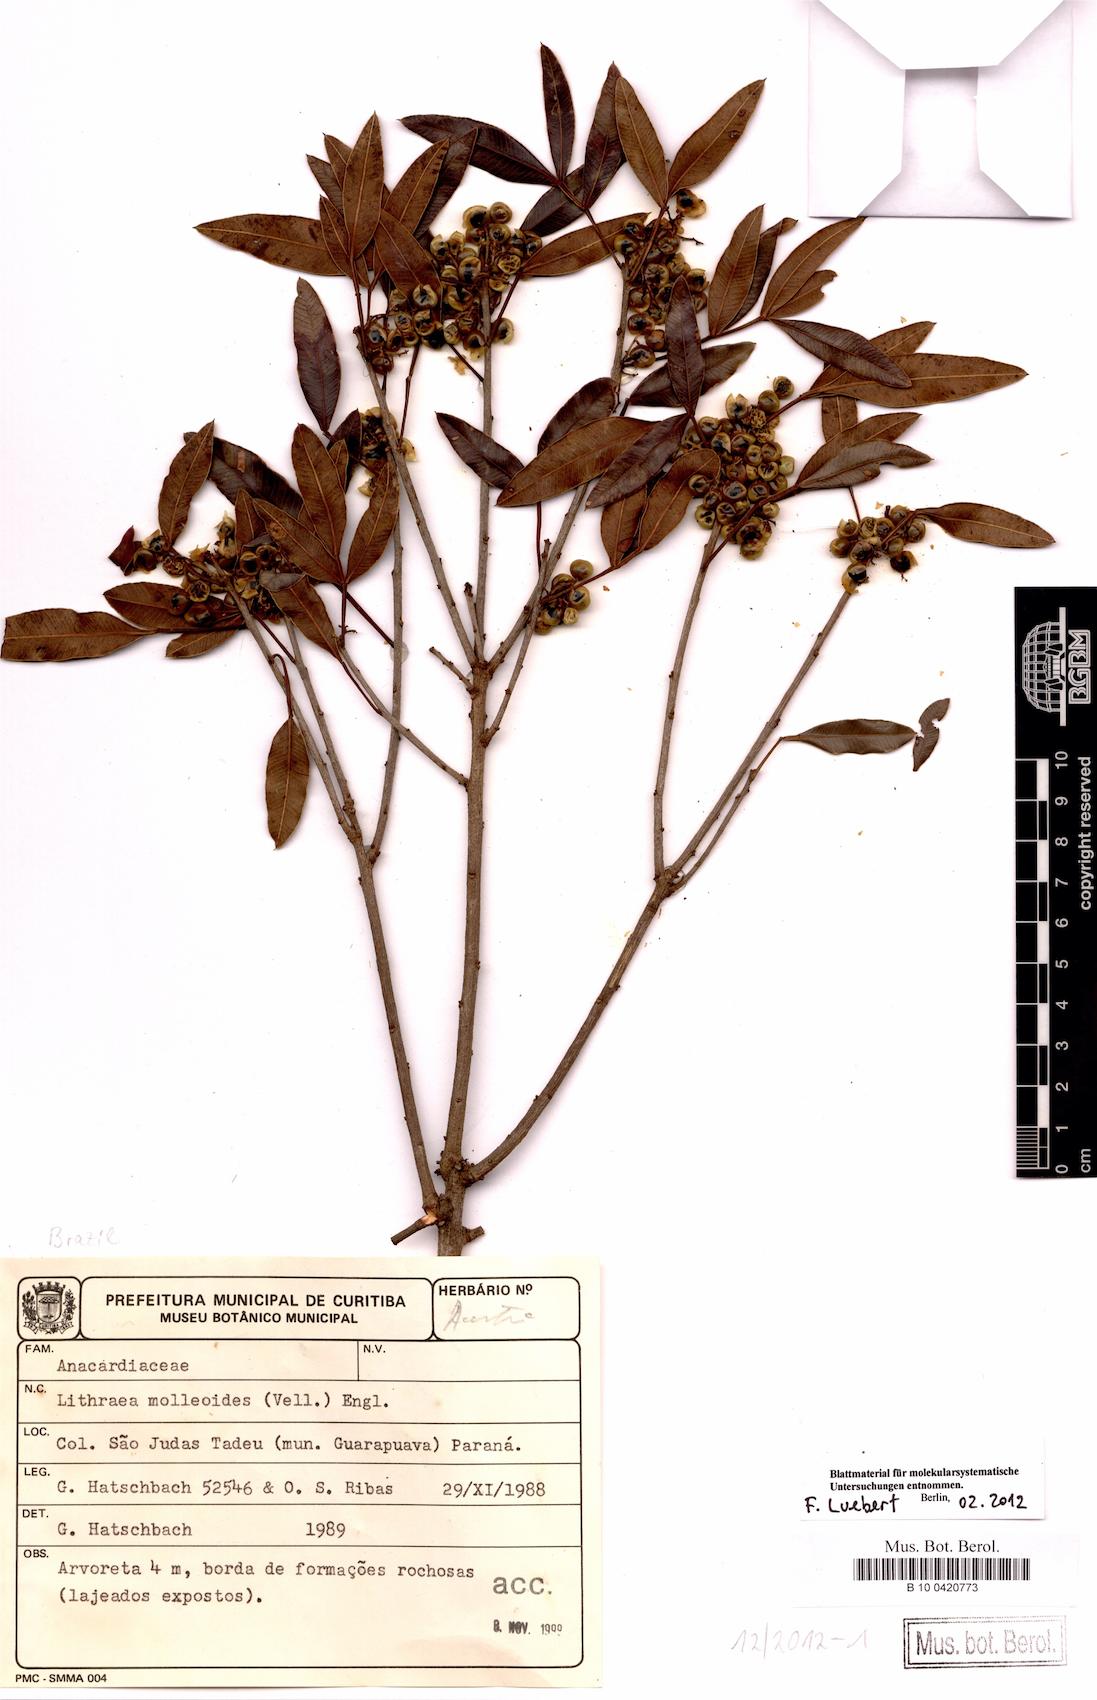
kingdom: Plantae
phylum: Tracheophyta
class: Magnoliopsida
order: Sapindales
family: Anacardiaceae
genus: Lithraea
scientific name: Lithraea molleoides
